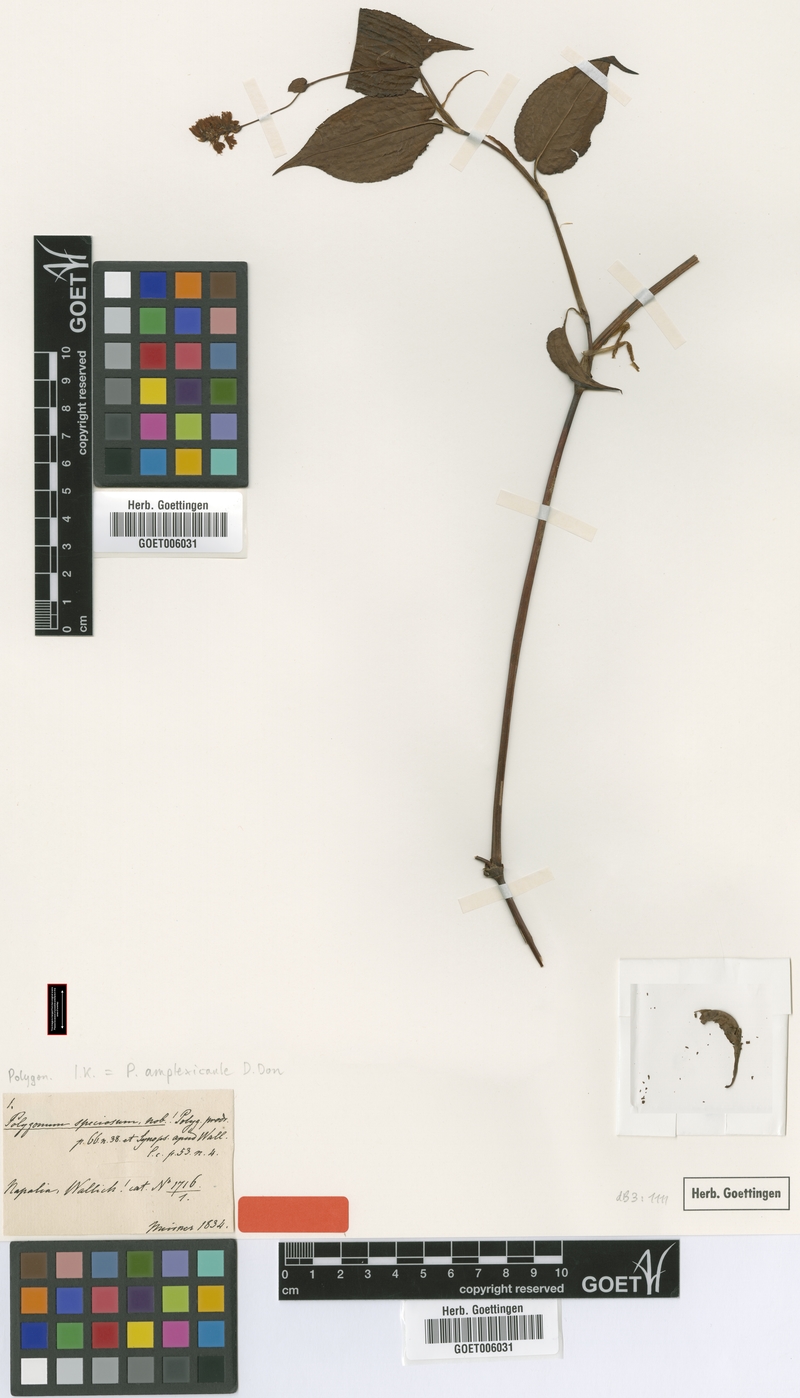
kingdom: Plantae
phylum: Tracheophyta
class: Magnoliopsida
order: Caryophyllales
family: Polygonaceae
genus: Bistorta
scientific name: Bistorta amplexicaulis
